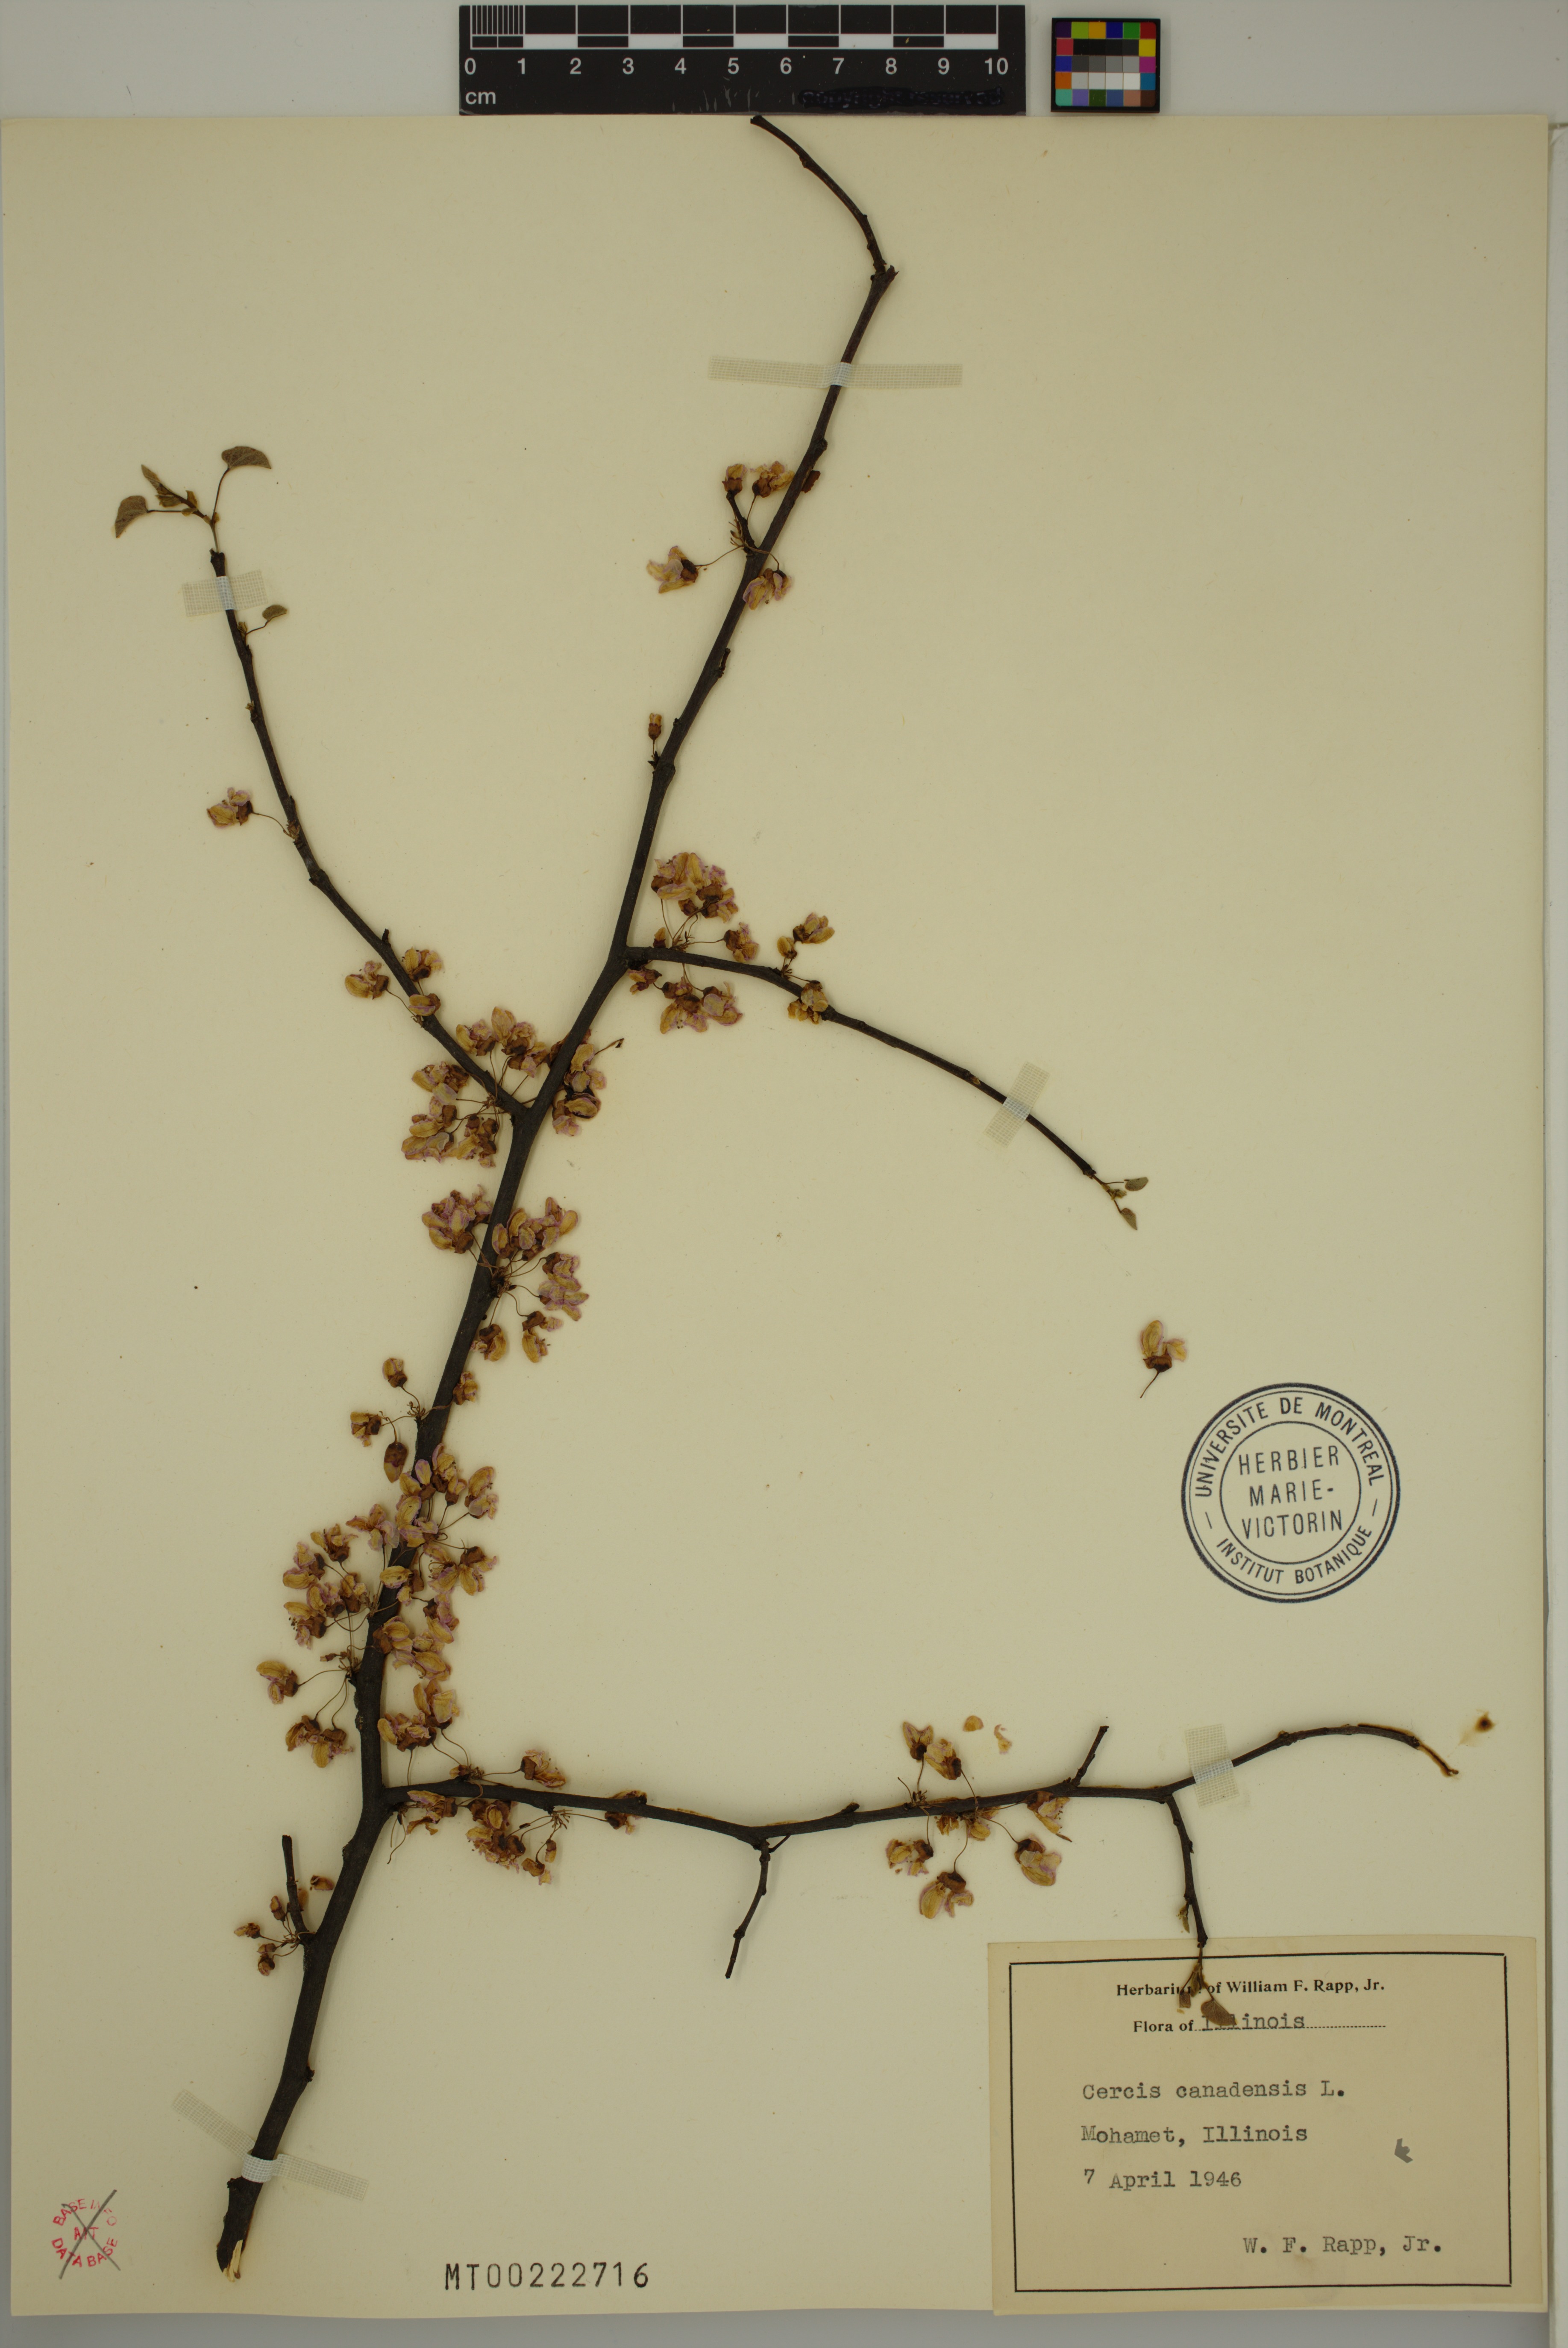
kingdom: Plantae
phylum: Tracheophyta
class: Magnoliopsida
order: Fabales
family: Fabaceae
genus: Cercis
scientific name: Cercis canadensis
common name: Eastern redbud
